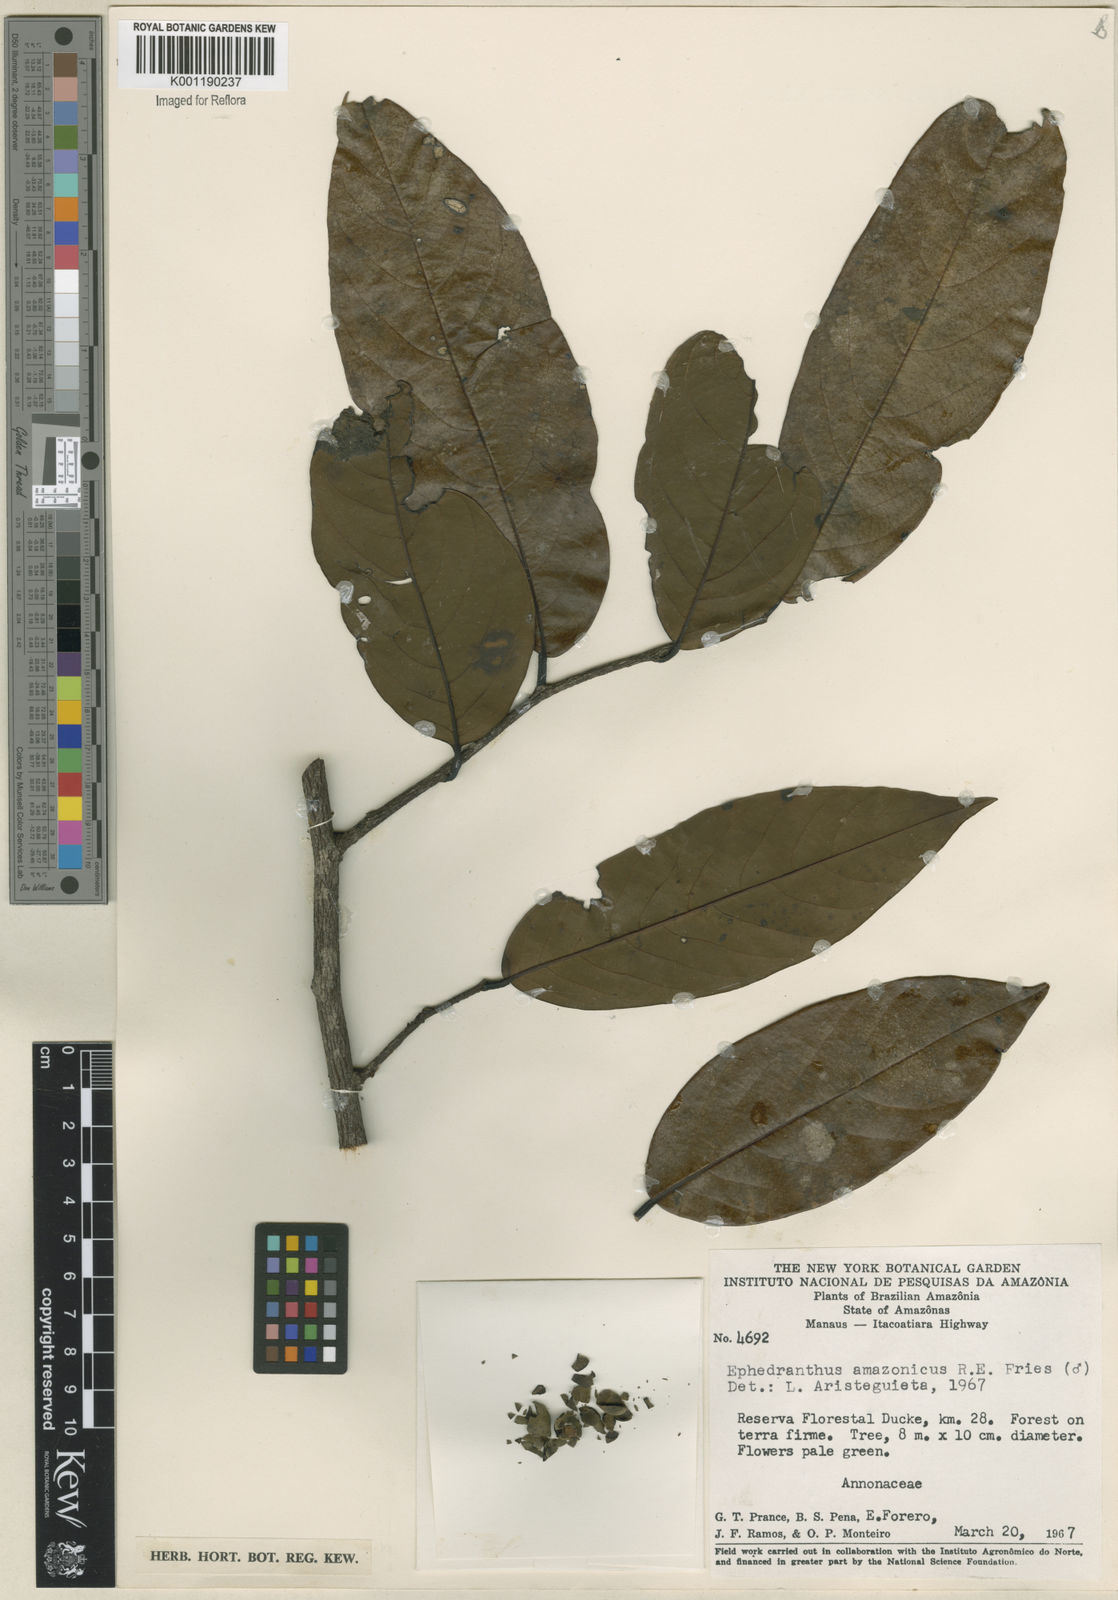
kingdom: Plantae
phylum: Tracheophyta
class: Magnoliopsida
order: Magnoliales
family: Annonaceae
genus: Ephedranthus
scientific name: Ephedranthus amazonicus
